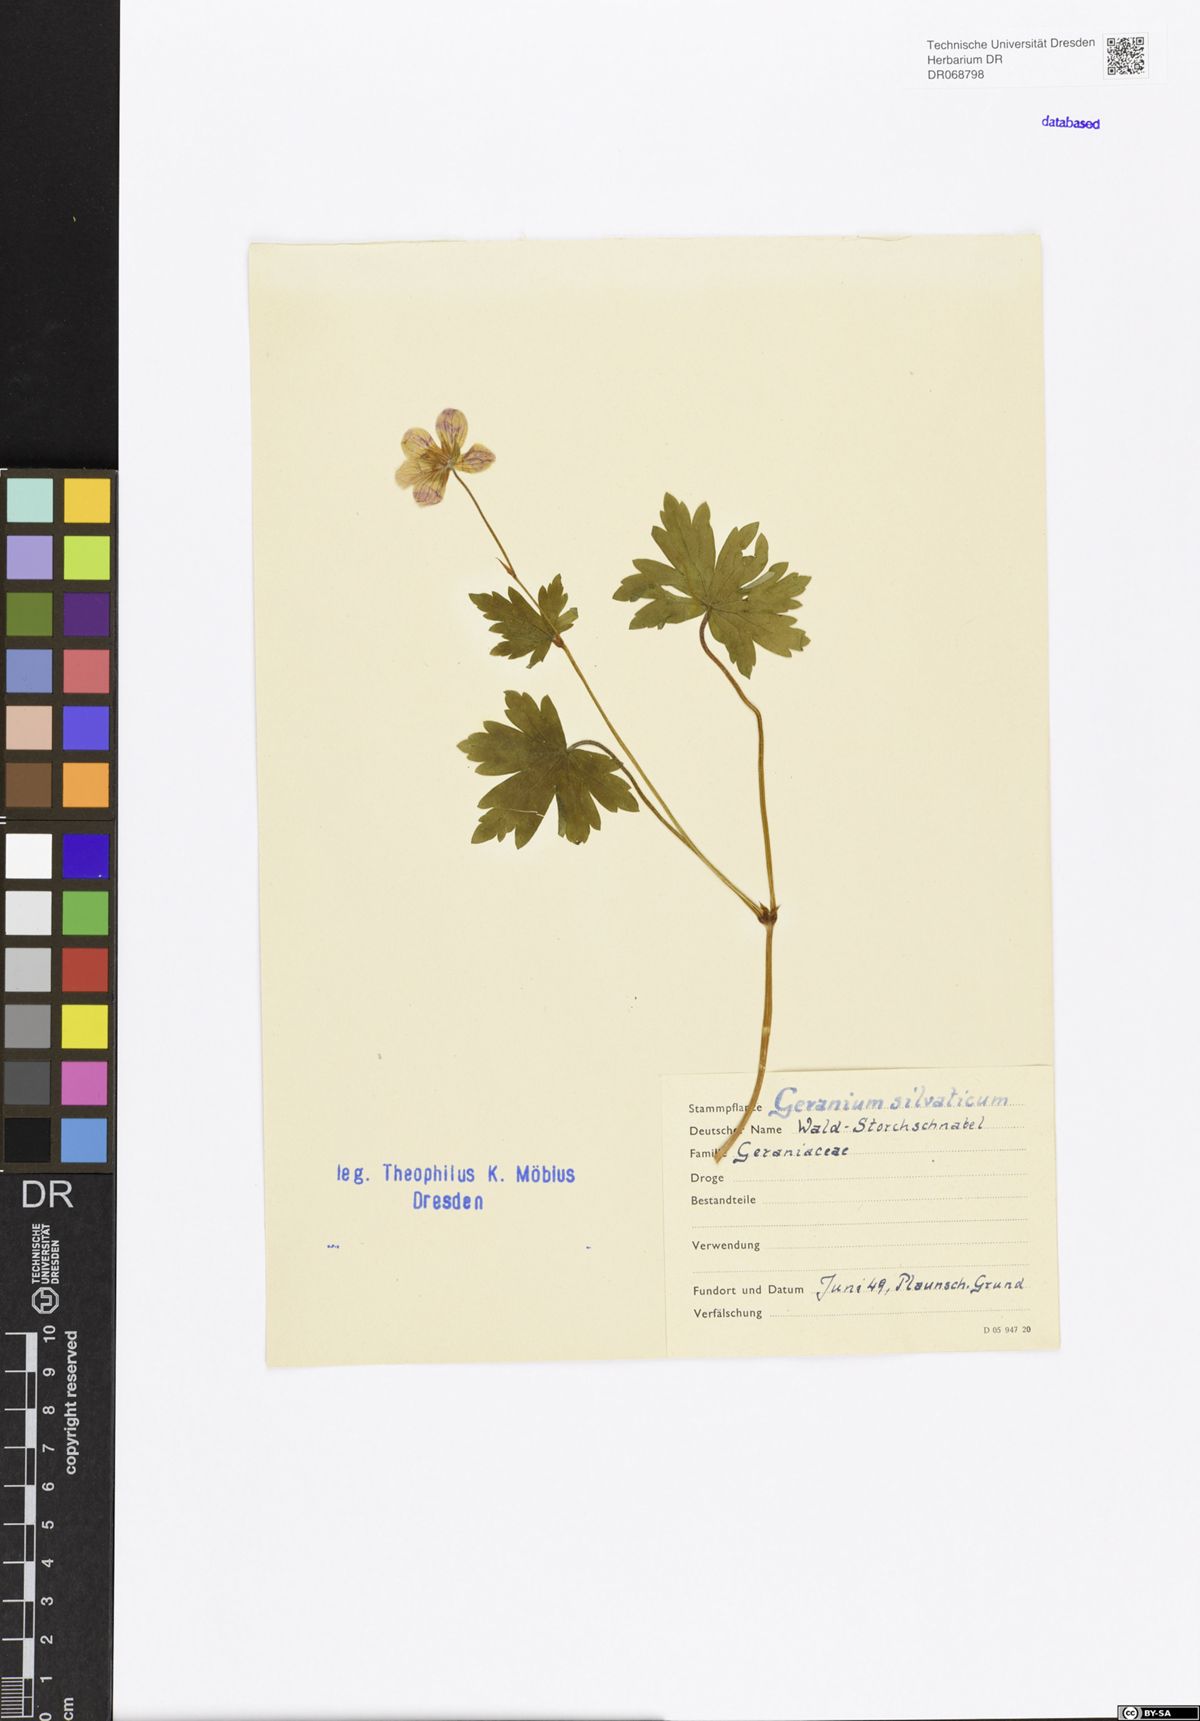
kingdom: Plantae
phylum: Tracheophyta
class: Magnoliopsida
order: Geraniales
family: Geraniaceae
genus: Geranium
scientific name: Geranium sylvaticum
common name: Wood crane's-bill
